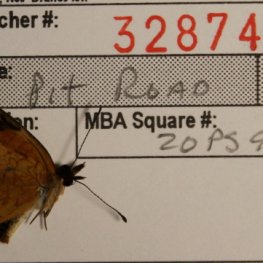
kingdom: Animalia
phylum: Arthropoda
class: Insecta
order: Lepidoptera
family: Nymphalidae
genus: Phyciodes
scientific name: Phyciodes tharos
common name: Northern Crescent
